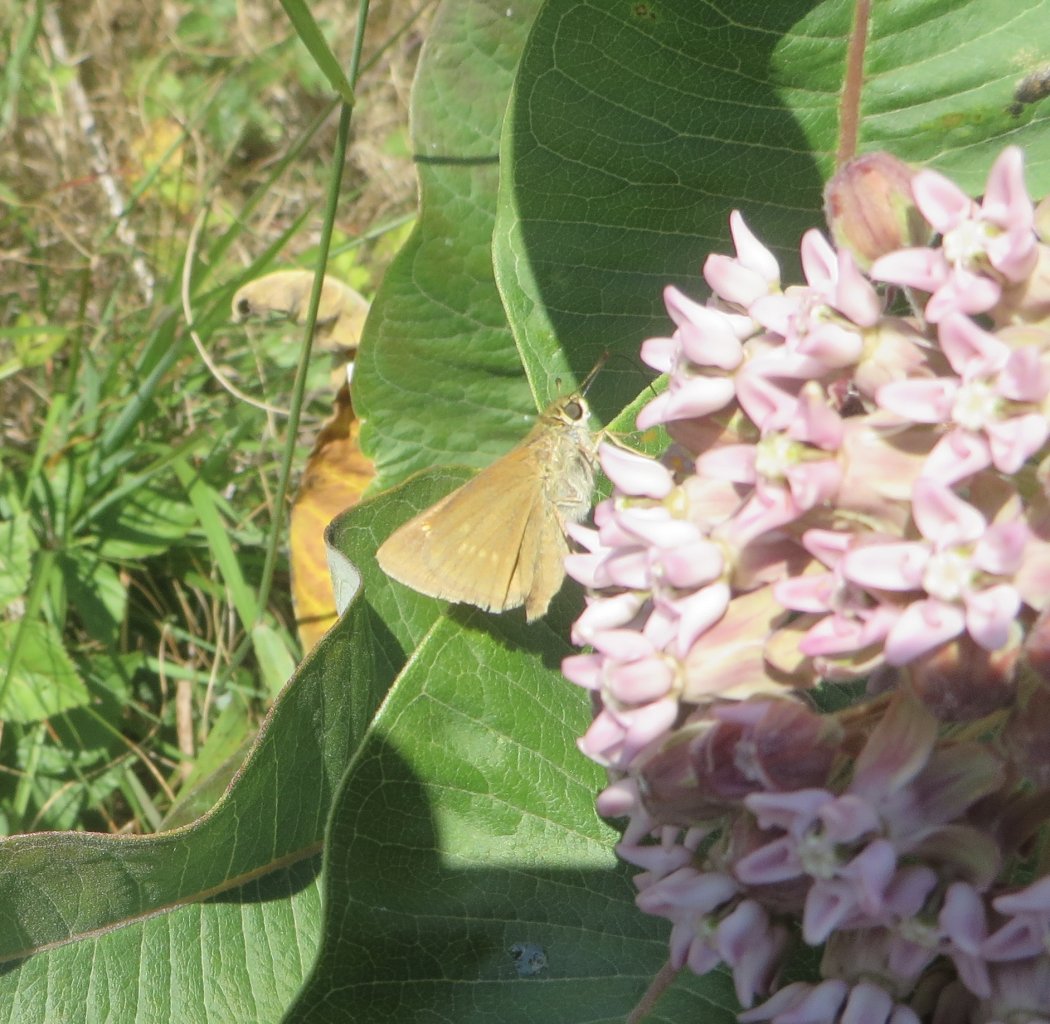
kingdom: Animalia
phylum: Arthropoda
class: Insecta
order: Lepidoptera
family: Hesperiidae
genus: Polites
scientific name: Polites
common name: Crossline Skipper
